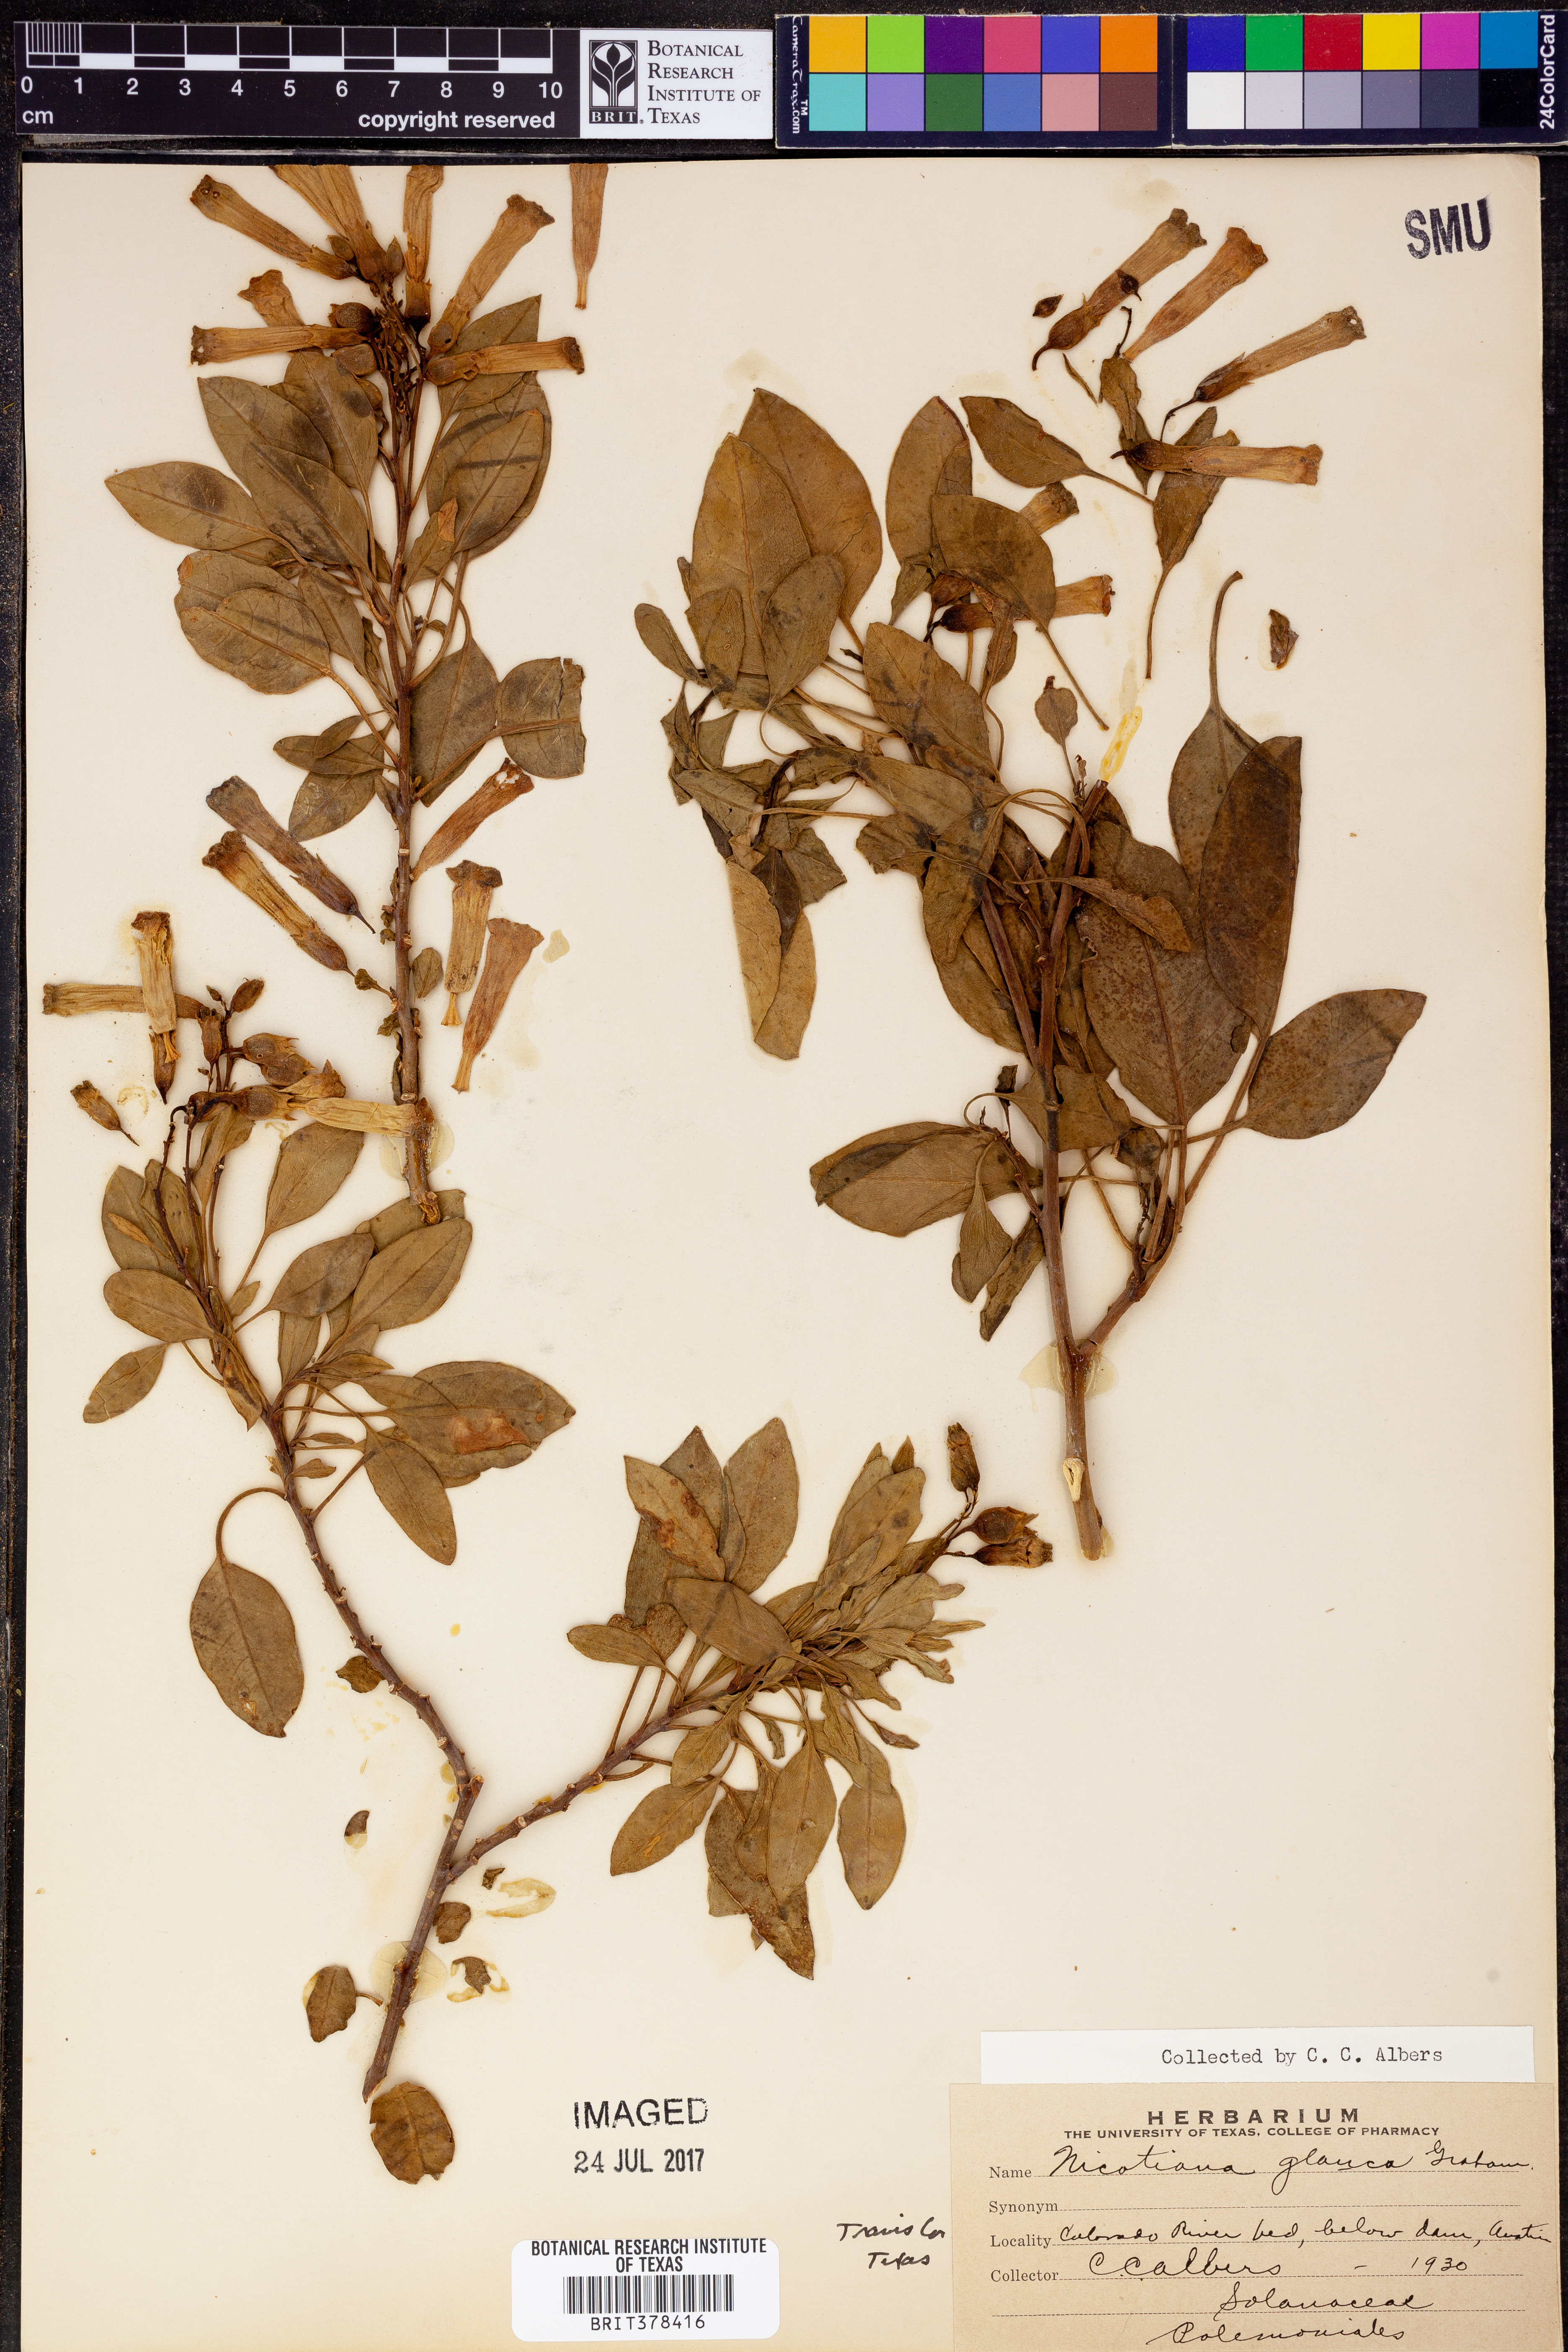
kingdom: Plantae
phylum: Tracheophyta
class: Magnoliopsida
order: Solanales
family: Solanaceae
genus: Nicotiana
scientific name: Nicotiana glauca
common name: Tree tobacco
